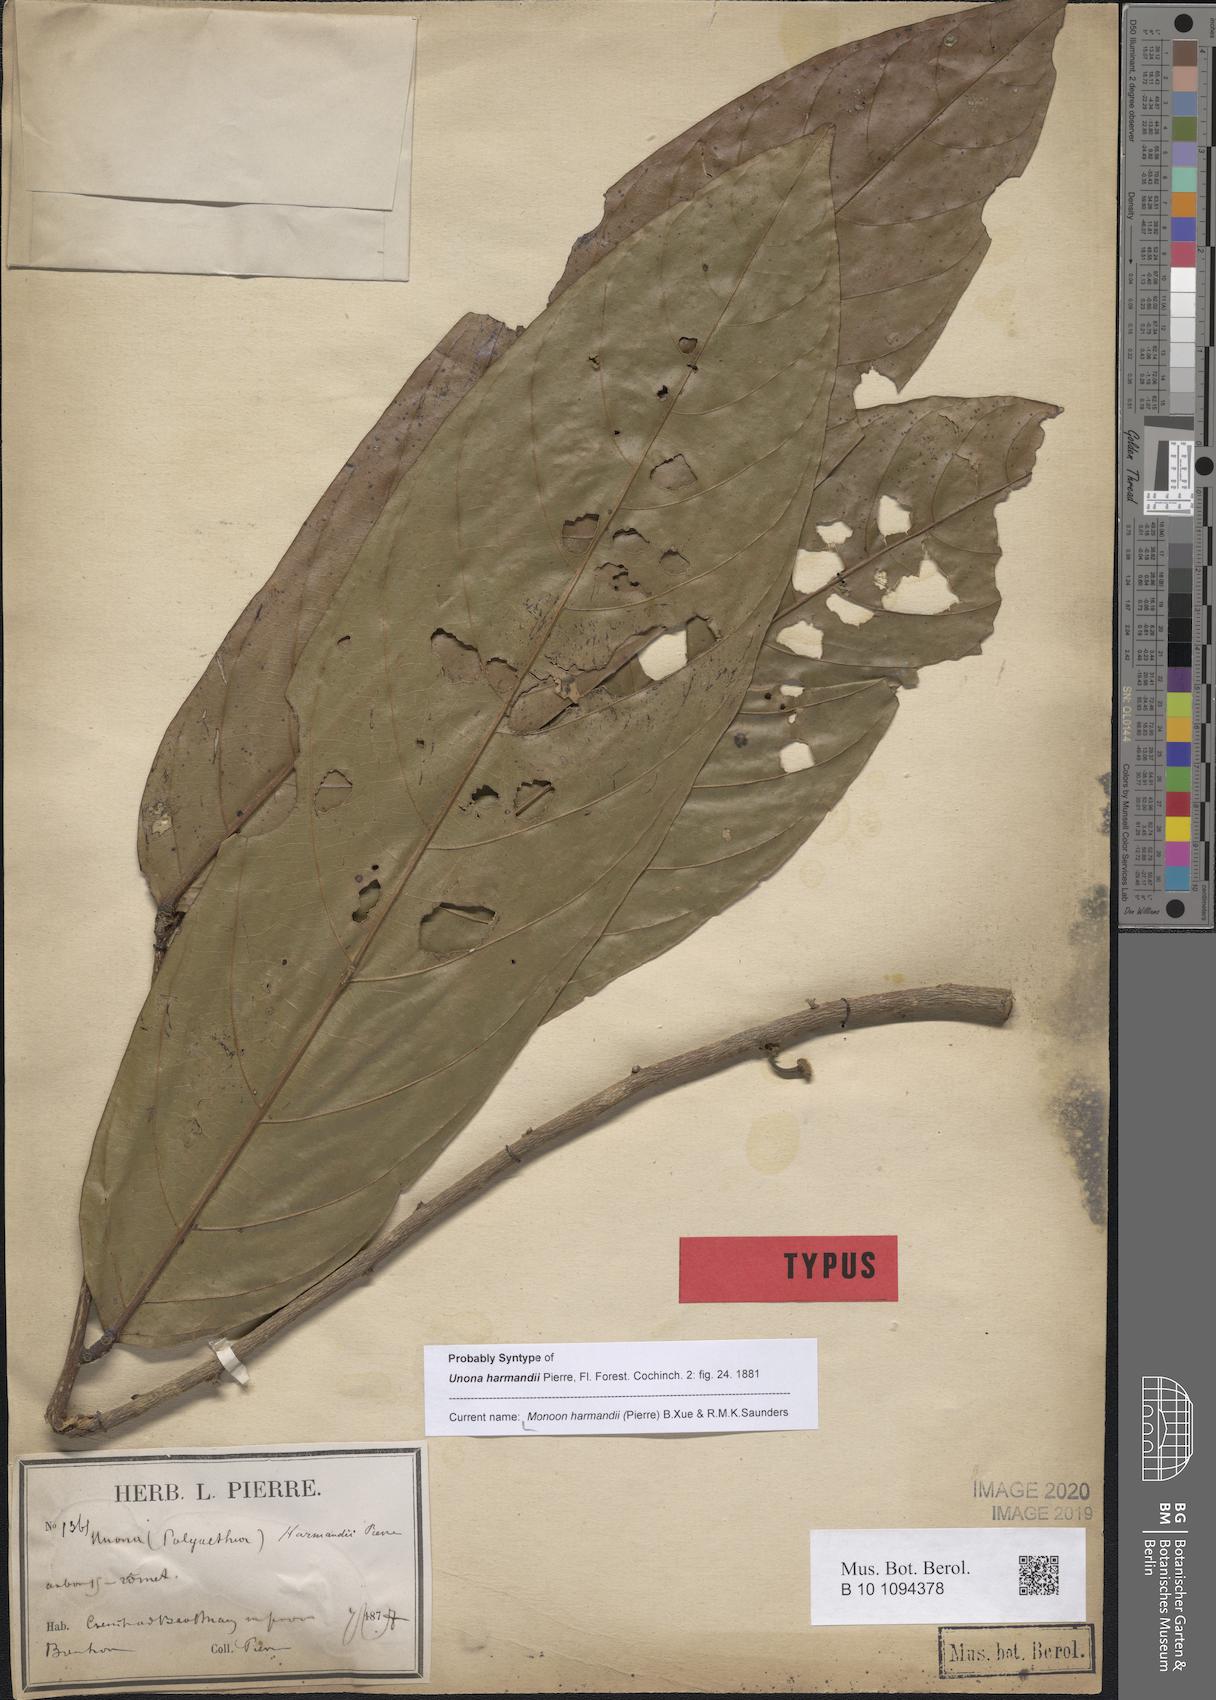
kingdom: Plantae
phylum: Tracheophyta
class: Magnoliopsida
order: Magnoliales
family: Annonaceae
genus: Polyalthia
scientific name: Polyalthia harmandii
